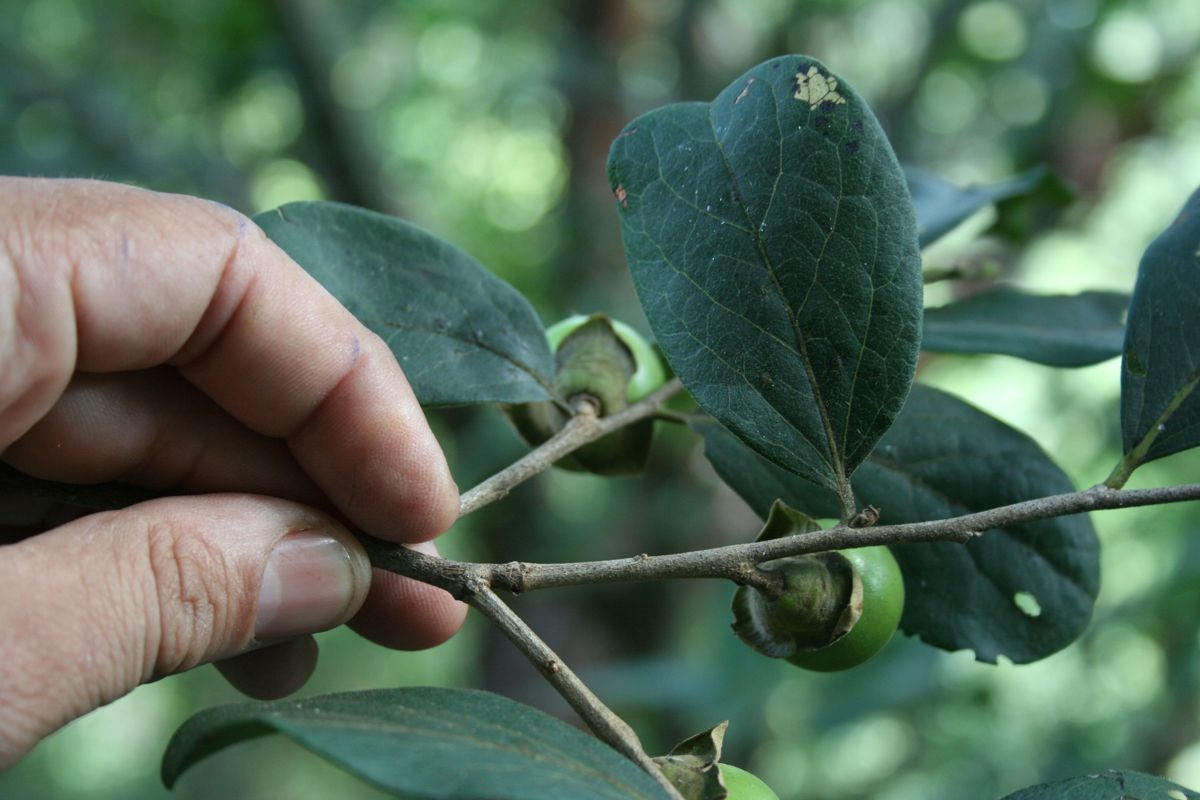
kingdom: Plantae
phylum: Tracheophyta
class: Magnoliopsida
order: Ericales
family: Ebenaceae
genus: Diospyros
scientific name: Diospyros salicifolia
